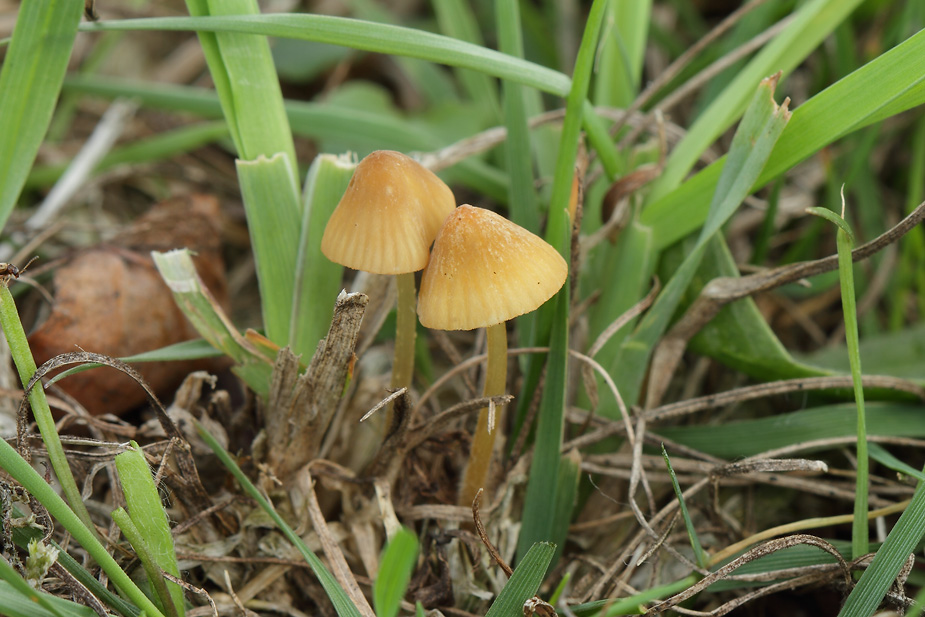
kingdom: Fungi
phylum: Basidiomycota
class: Agaricomycetes
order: Agaricales
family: Mycenaceae
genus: Mycena
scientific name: Mycena olivaceomarginata
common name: brunægget huesvamp
